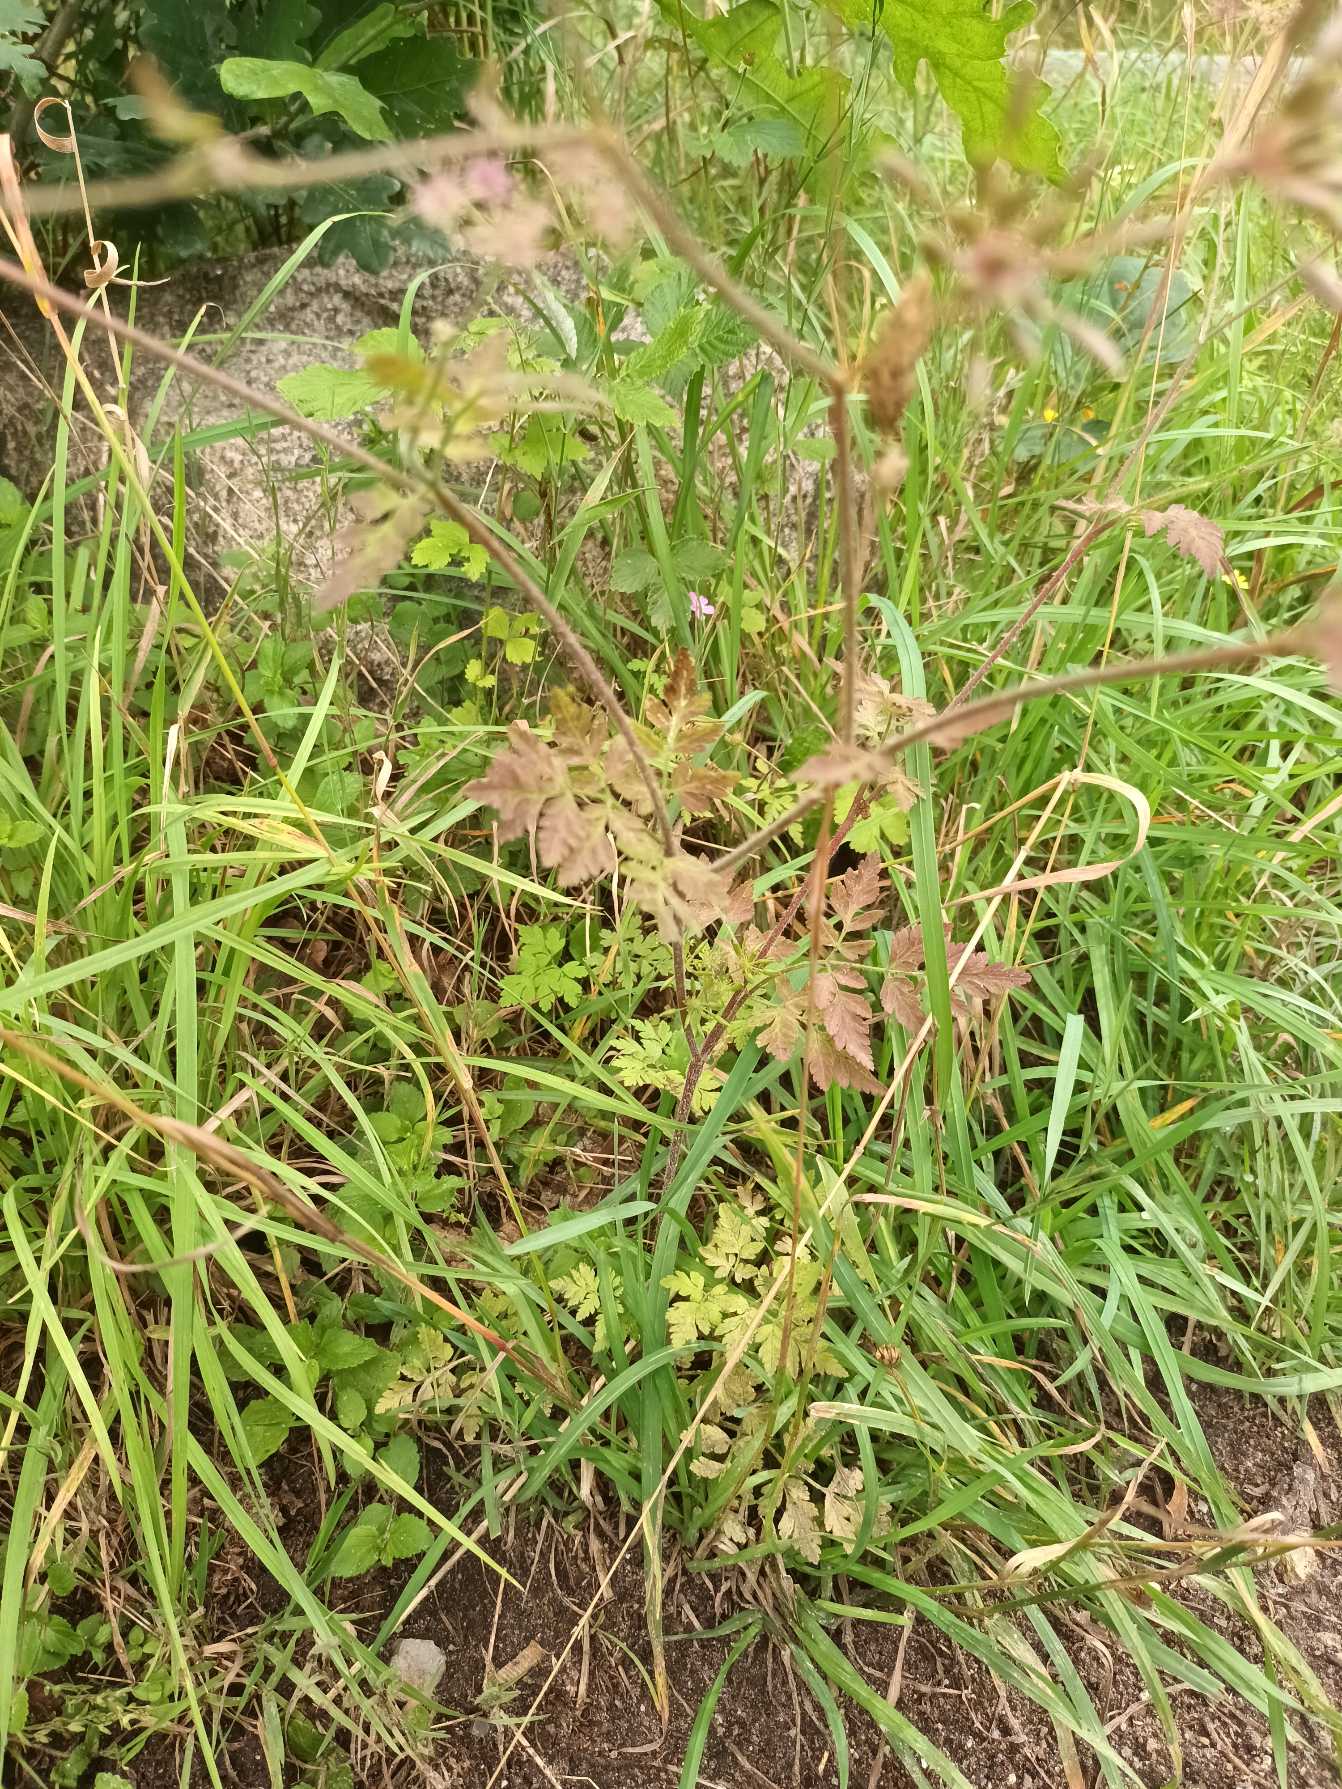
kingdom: Plantae
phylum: Tracheophyta
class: Magnoliopsida
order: Apiales
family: Apiaceae
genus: Chaerophyllum
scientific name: Chaerophyllum temulum
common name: Almindelig hulsvøb
